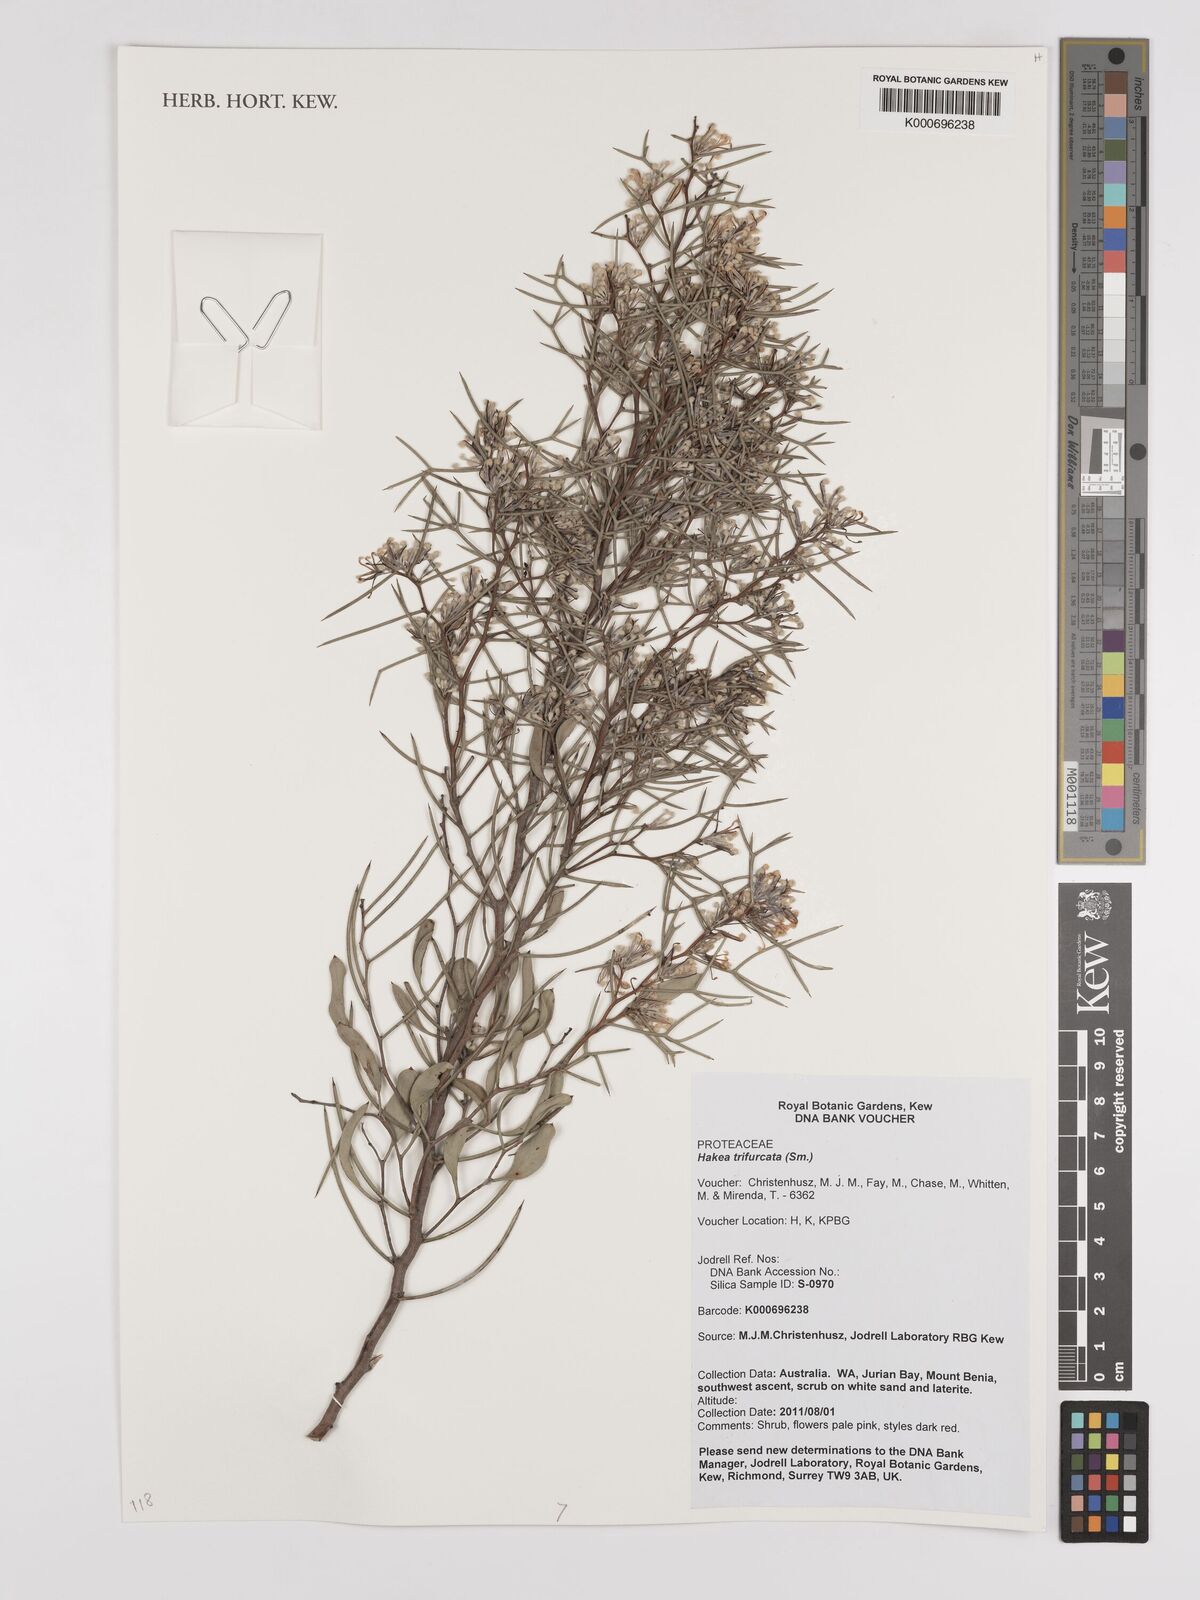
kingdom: Plantae
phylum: Tracheophyta
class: Magnoliopsida
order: Proteales
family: Proteaceae
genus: Hakea
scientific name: Hakea trifurcata
